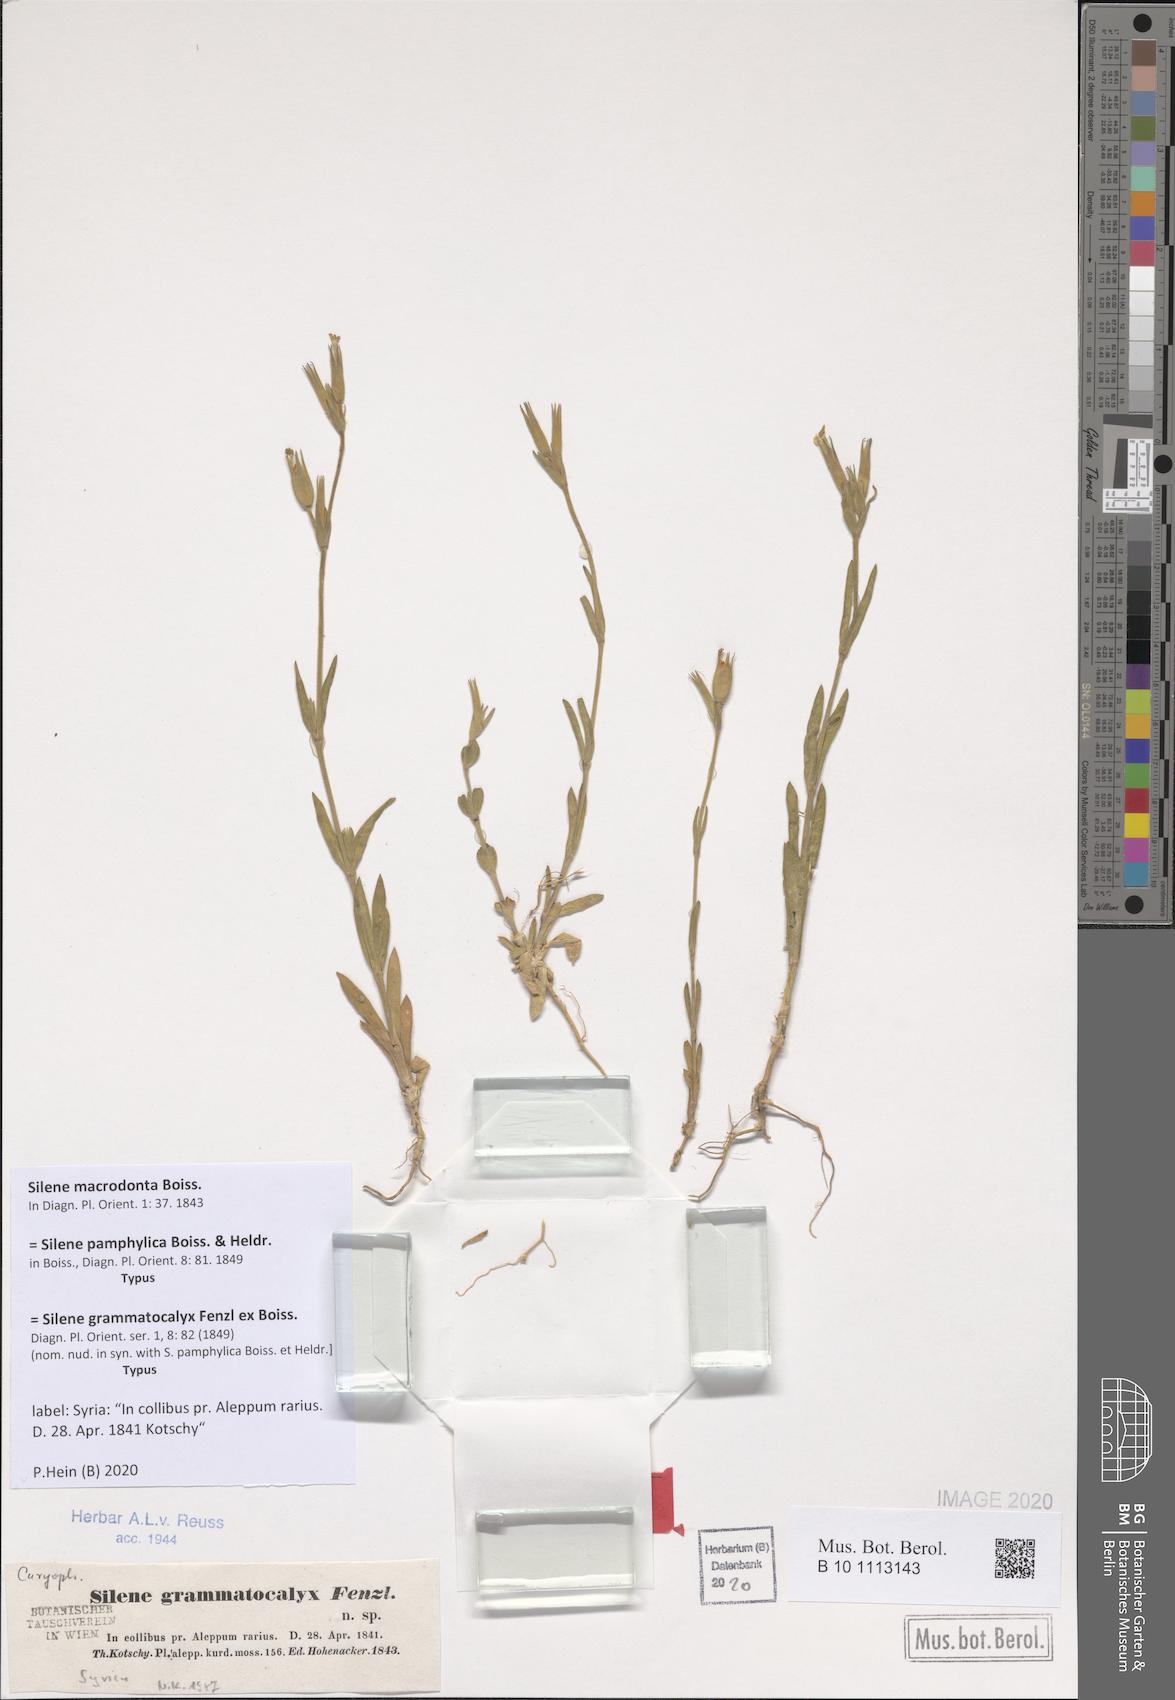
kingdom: Plantae
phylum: Tracheophyta
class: Magnoliopsida
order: Caryophyllales
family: Caryophyllaceae
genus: Silene
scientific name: Silene macrodonta
